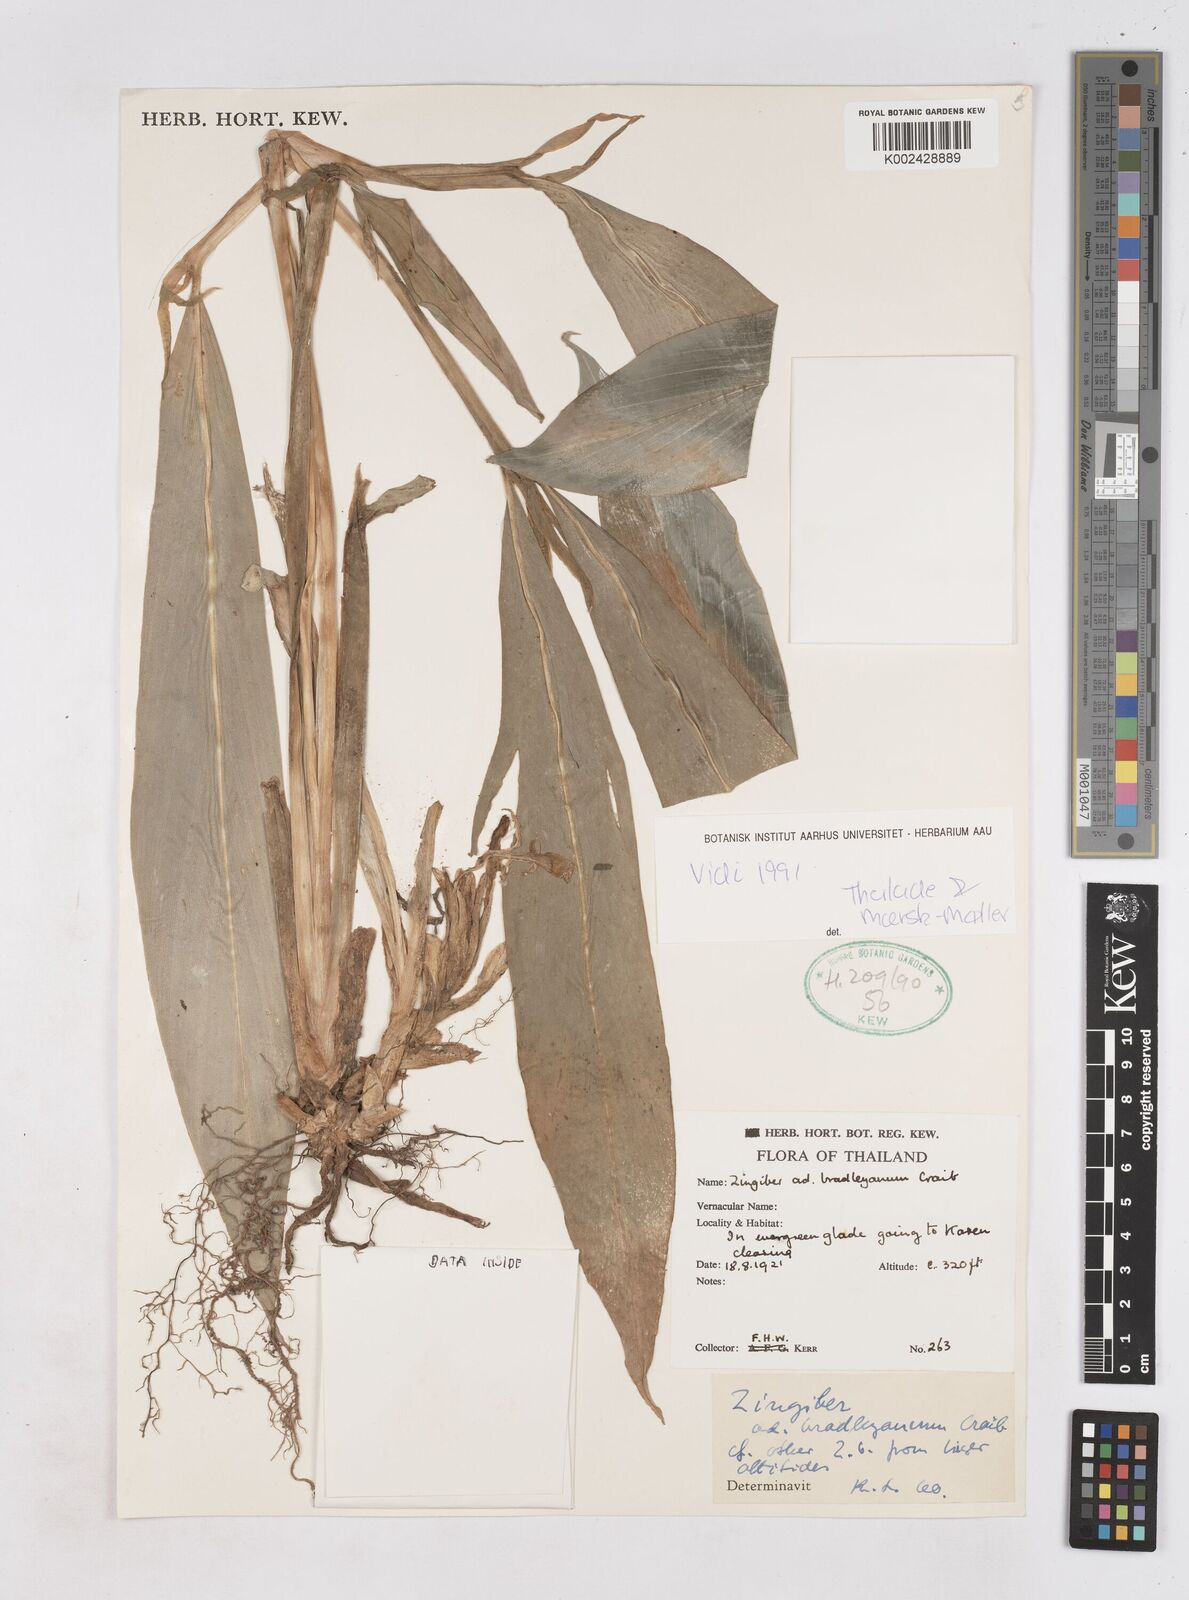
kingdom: Plantae
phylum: Tracheophyta
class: Liliopsida
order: Zingiberales
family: Zingiberaceae
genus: Zingiber
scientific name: Zingiber bradleyanum
